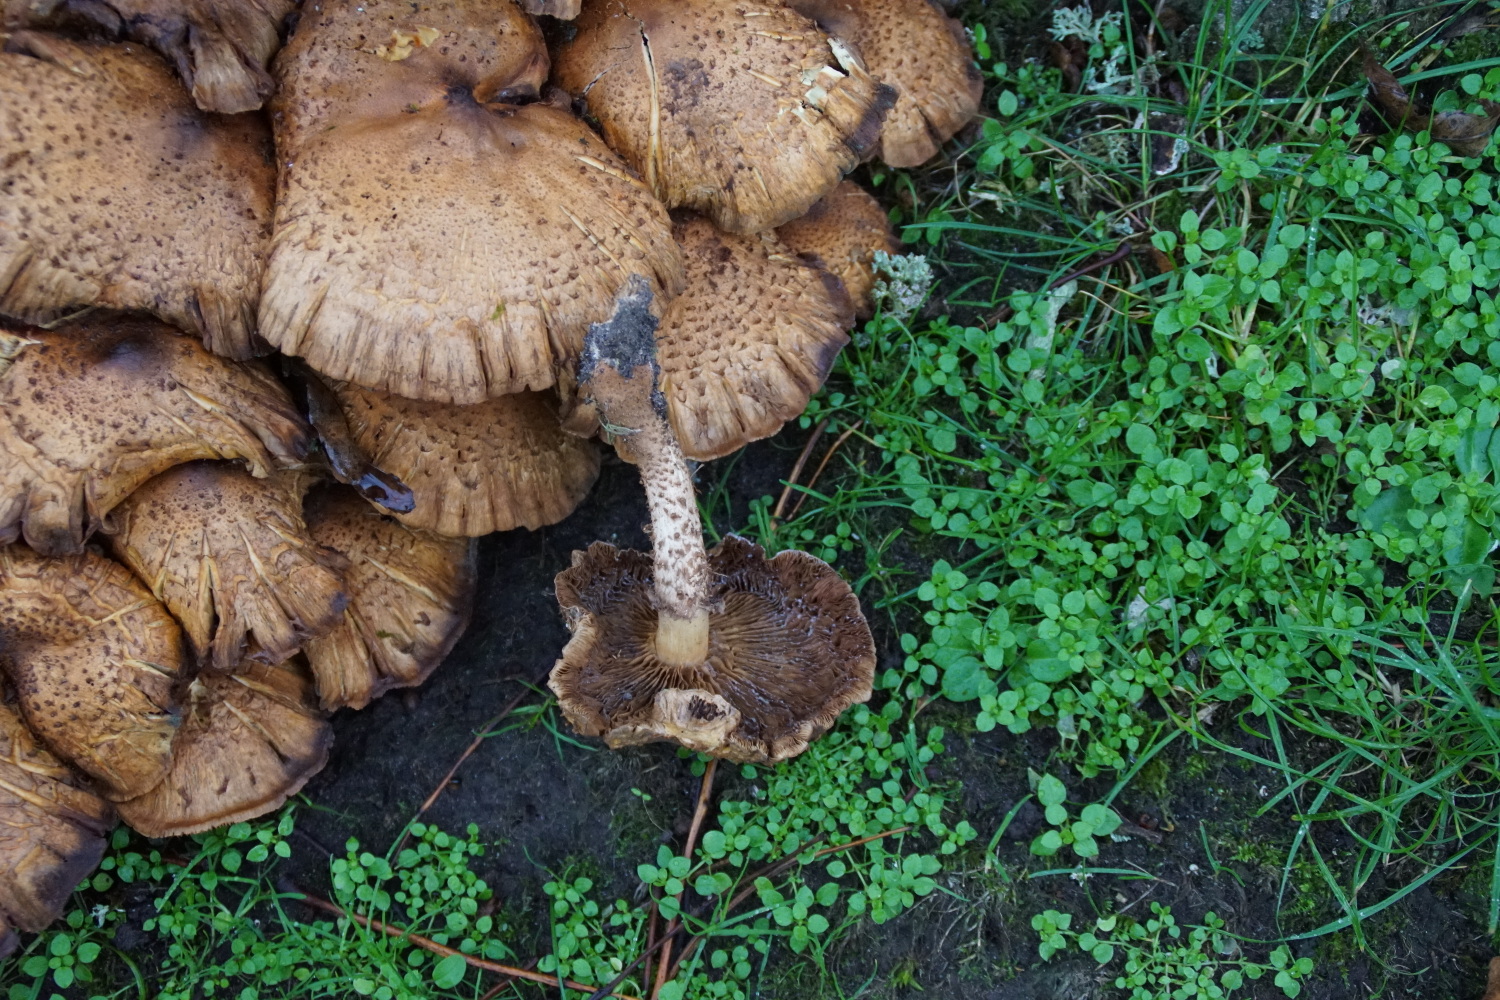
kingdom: Fungi
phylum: Basidiomycota
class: Agaricomycetes
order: Agaricales
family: Strophariaceae
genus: Pholiota
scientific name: Pholiota squarrosa
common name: krumskællet skælhat
